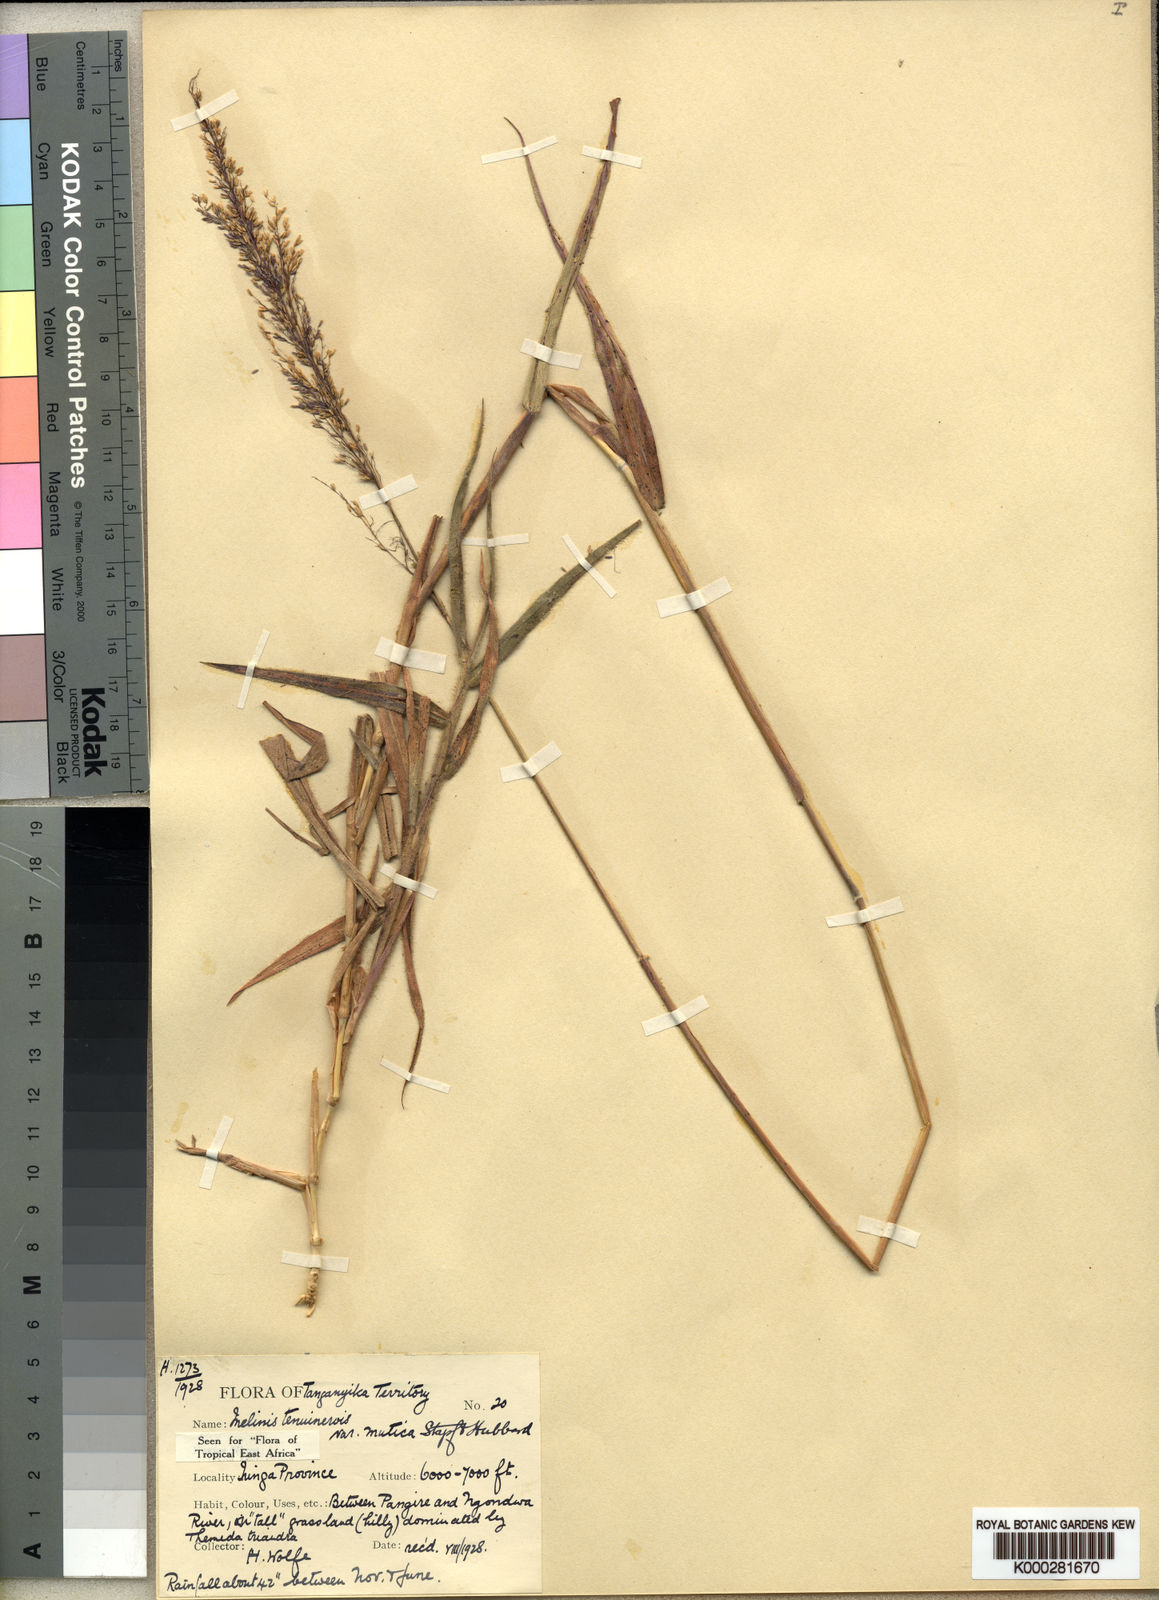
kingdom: Plantae
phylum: Tracheophyta
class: Liliopsida
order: Poales
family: Poaceae
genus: Melinis
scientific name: Melinis minutiflora
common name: Molassesgrass
